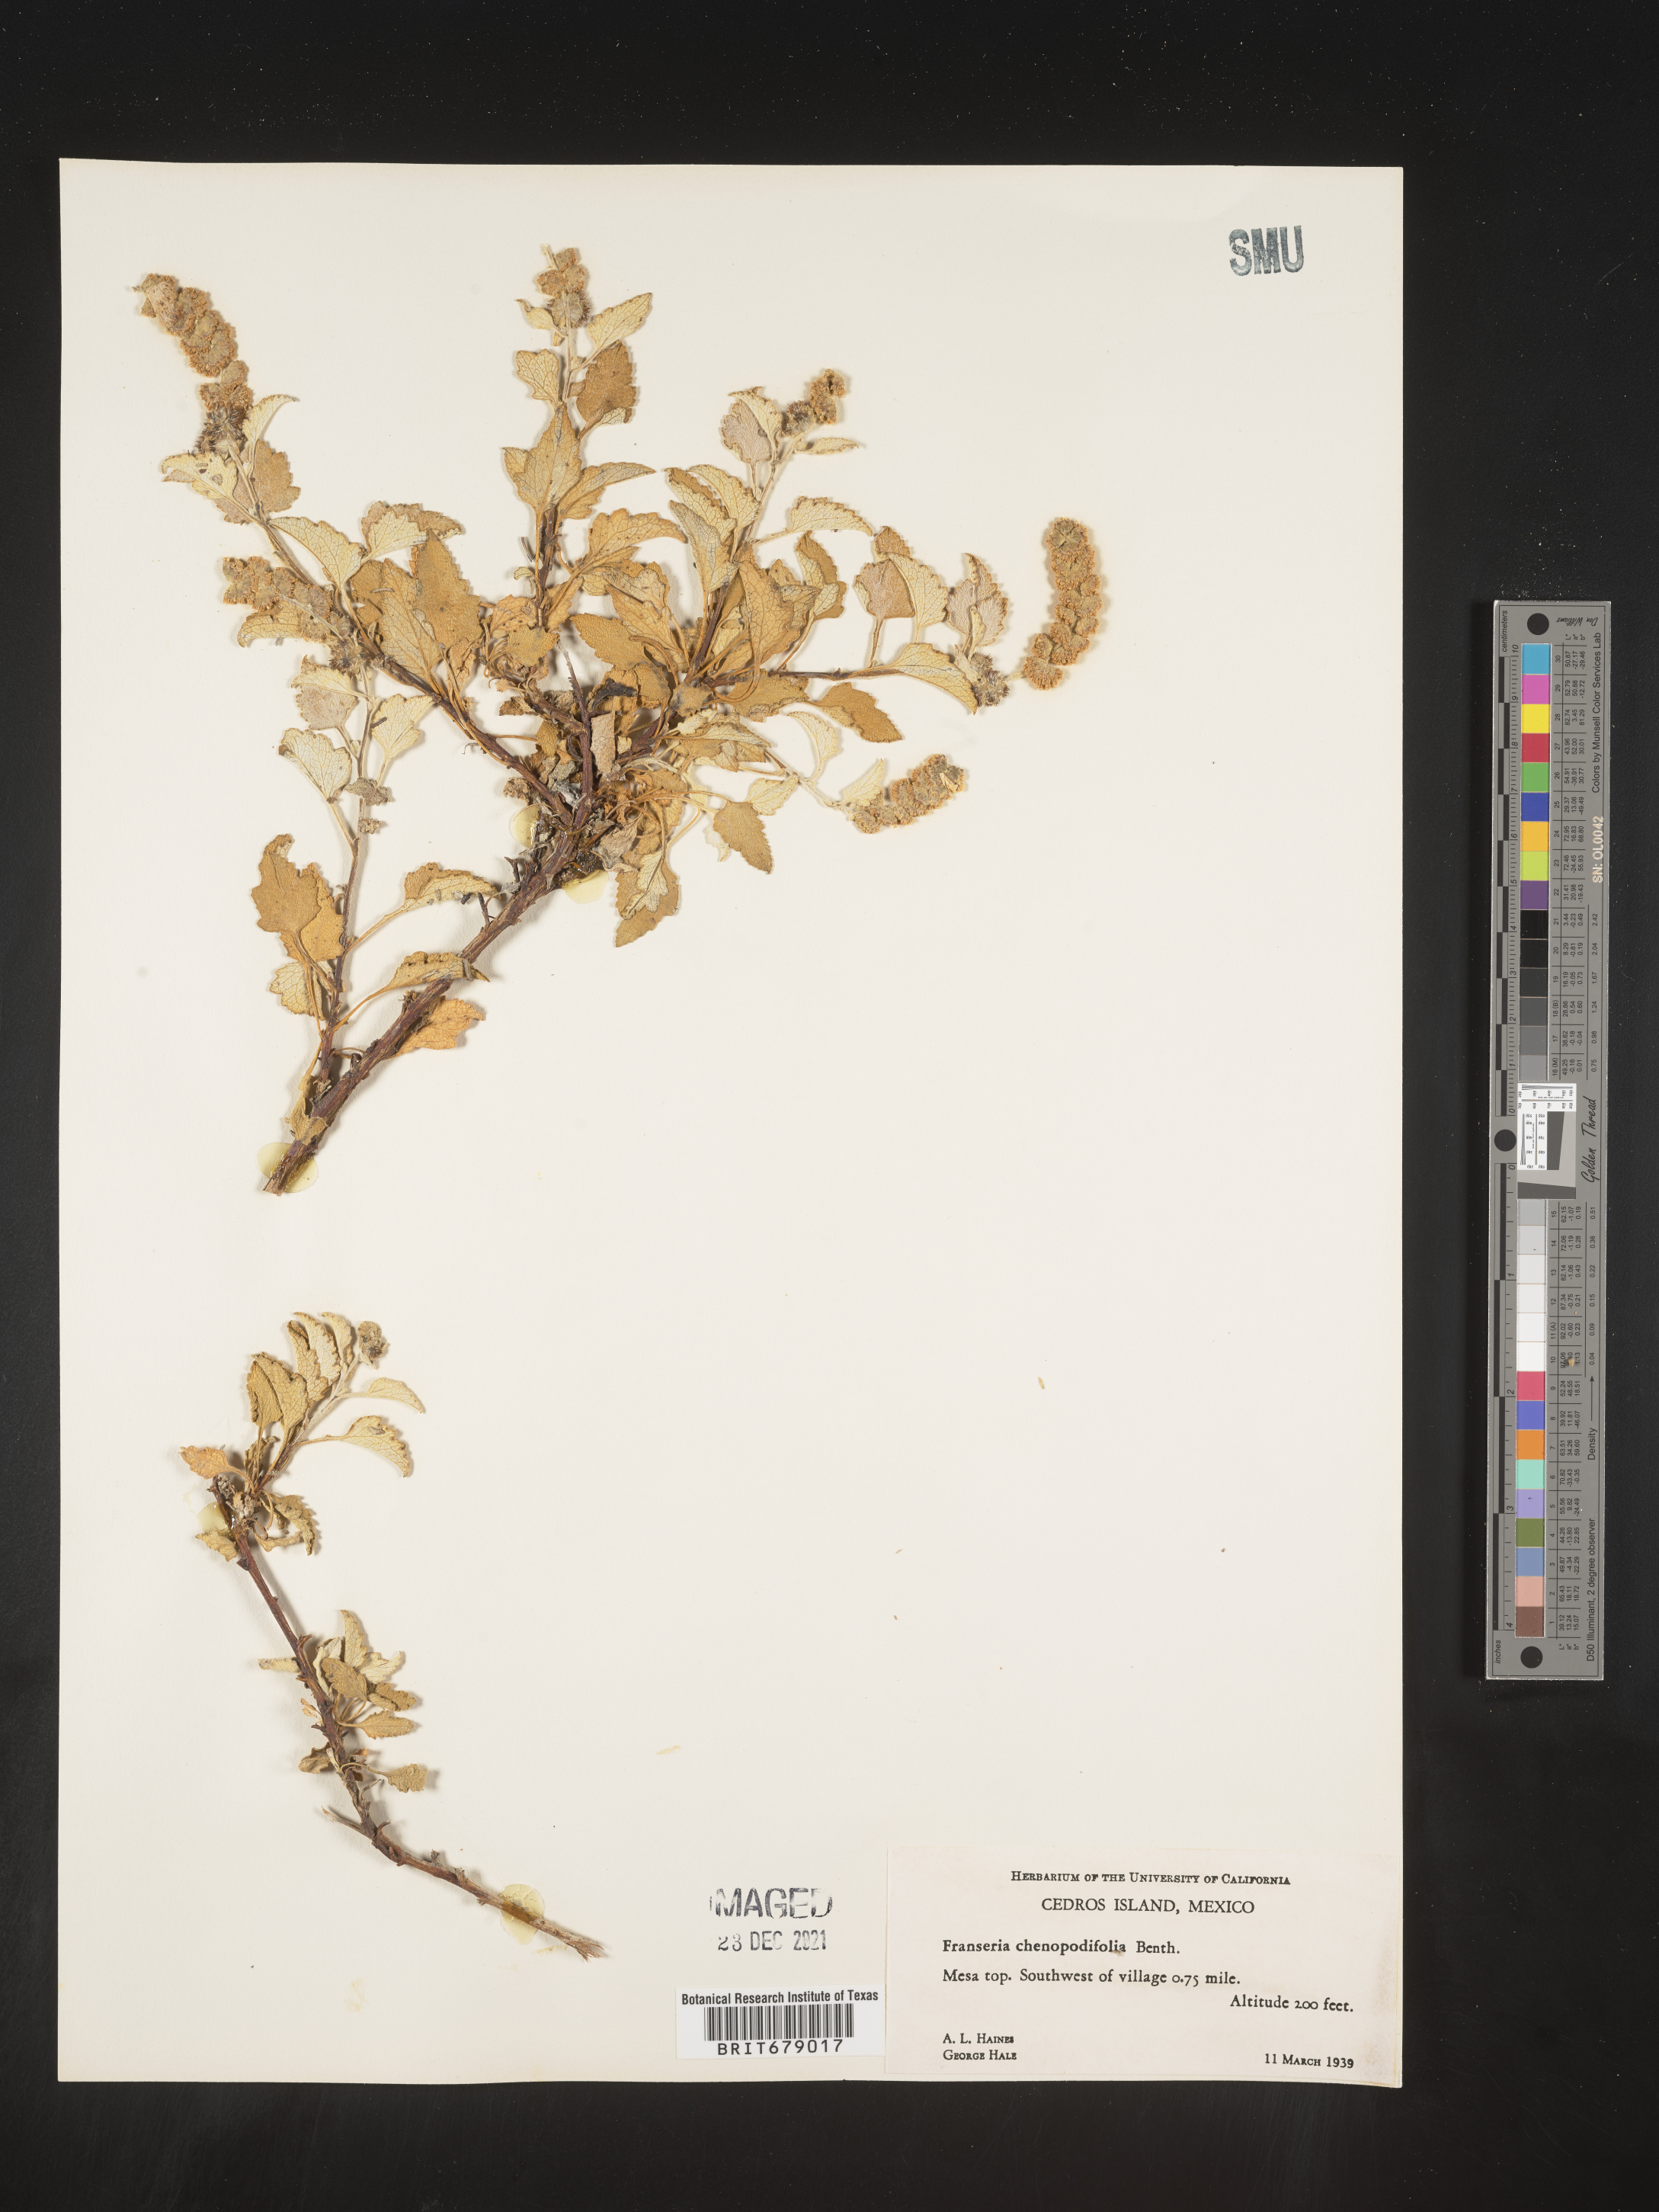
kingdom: Plantae
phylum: Tracheophyta
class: Magnoliopsida
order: Asterales
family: Asteraceae
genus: Ambrosia
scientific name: Ambrosia
